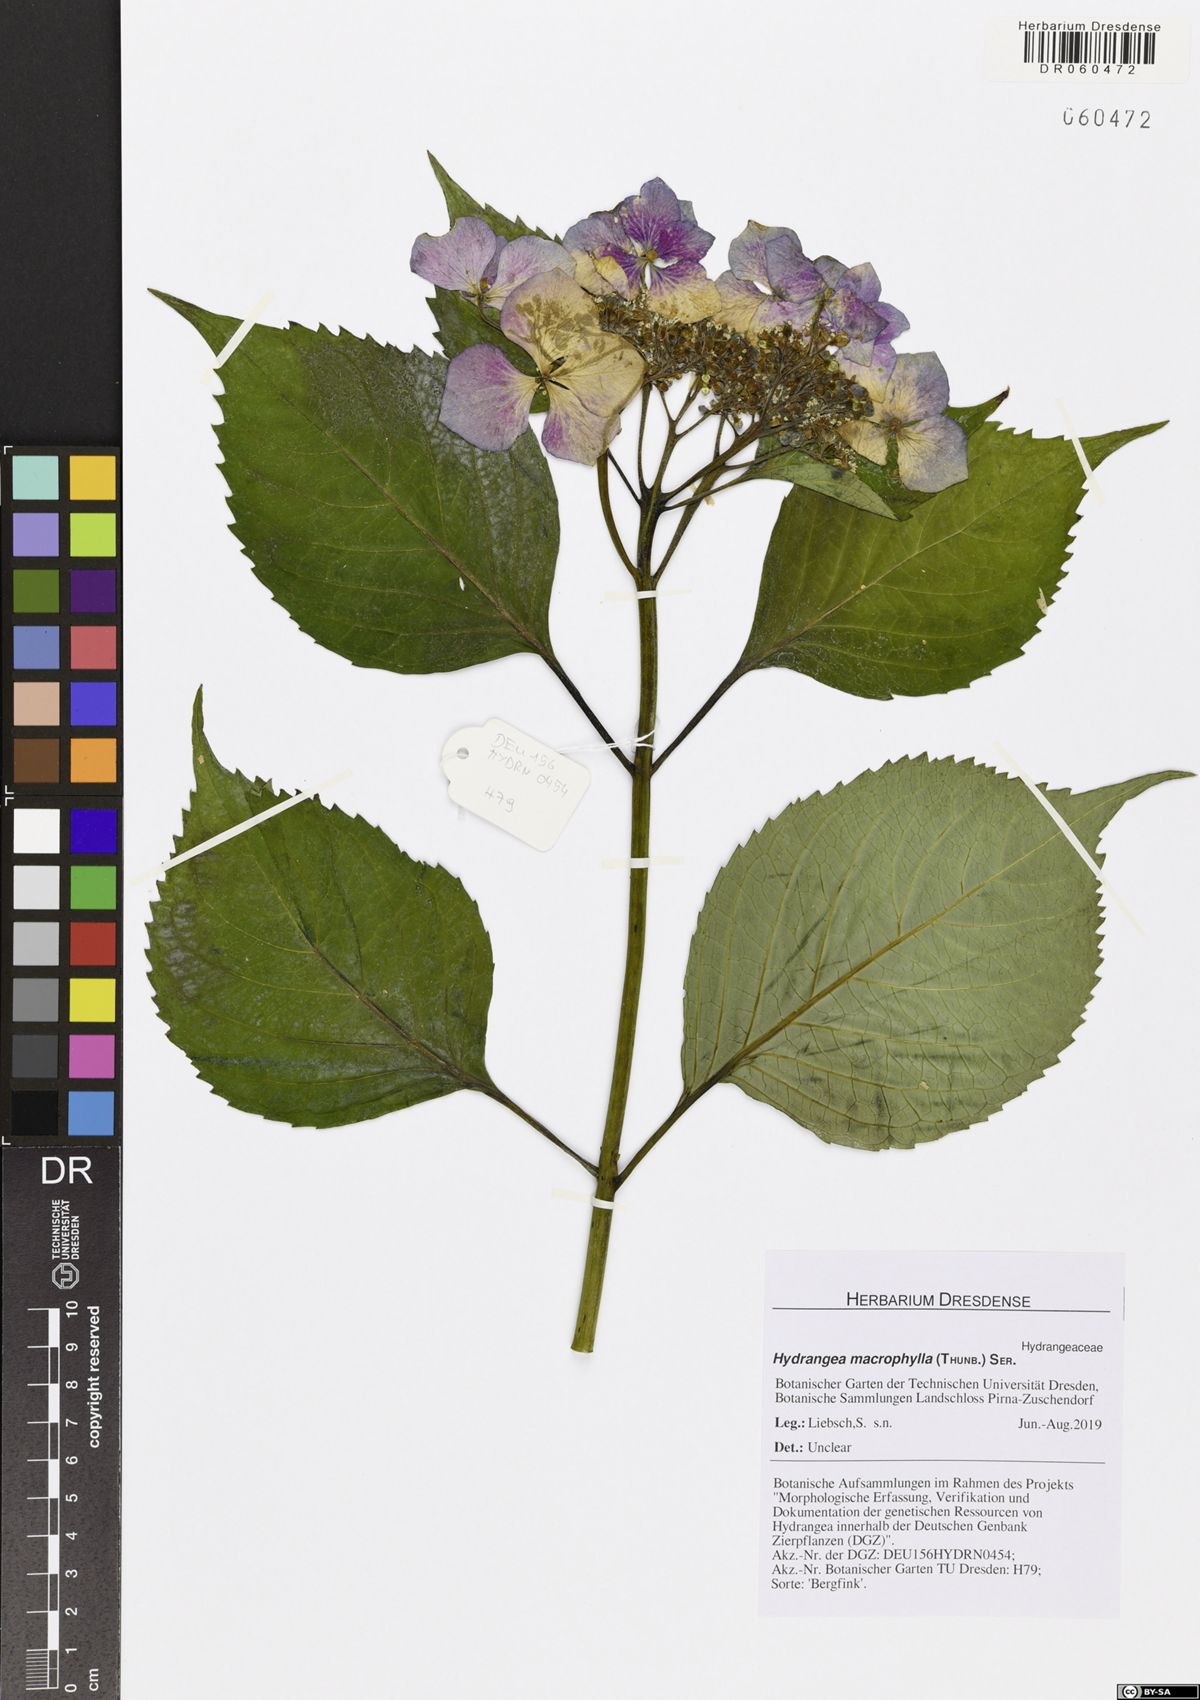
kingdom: Plantae
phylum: Tracheophyta
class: Magnoliopsida
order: Cornales
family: Hydrangeaceae
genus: Hydrangea
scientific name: Hydrangea macrophylla
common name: Hydrangea
